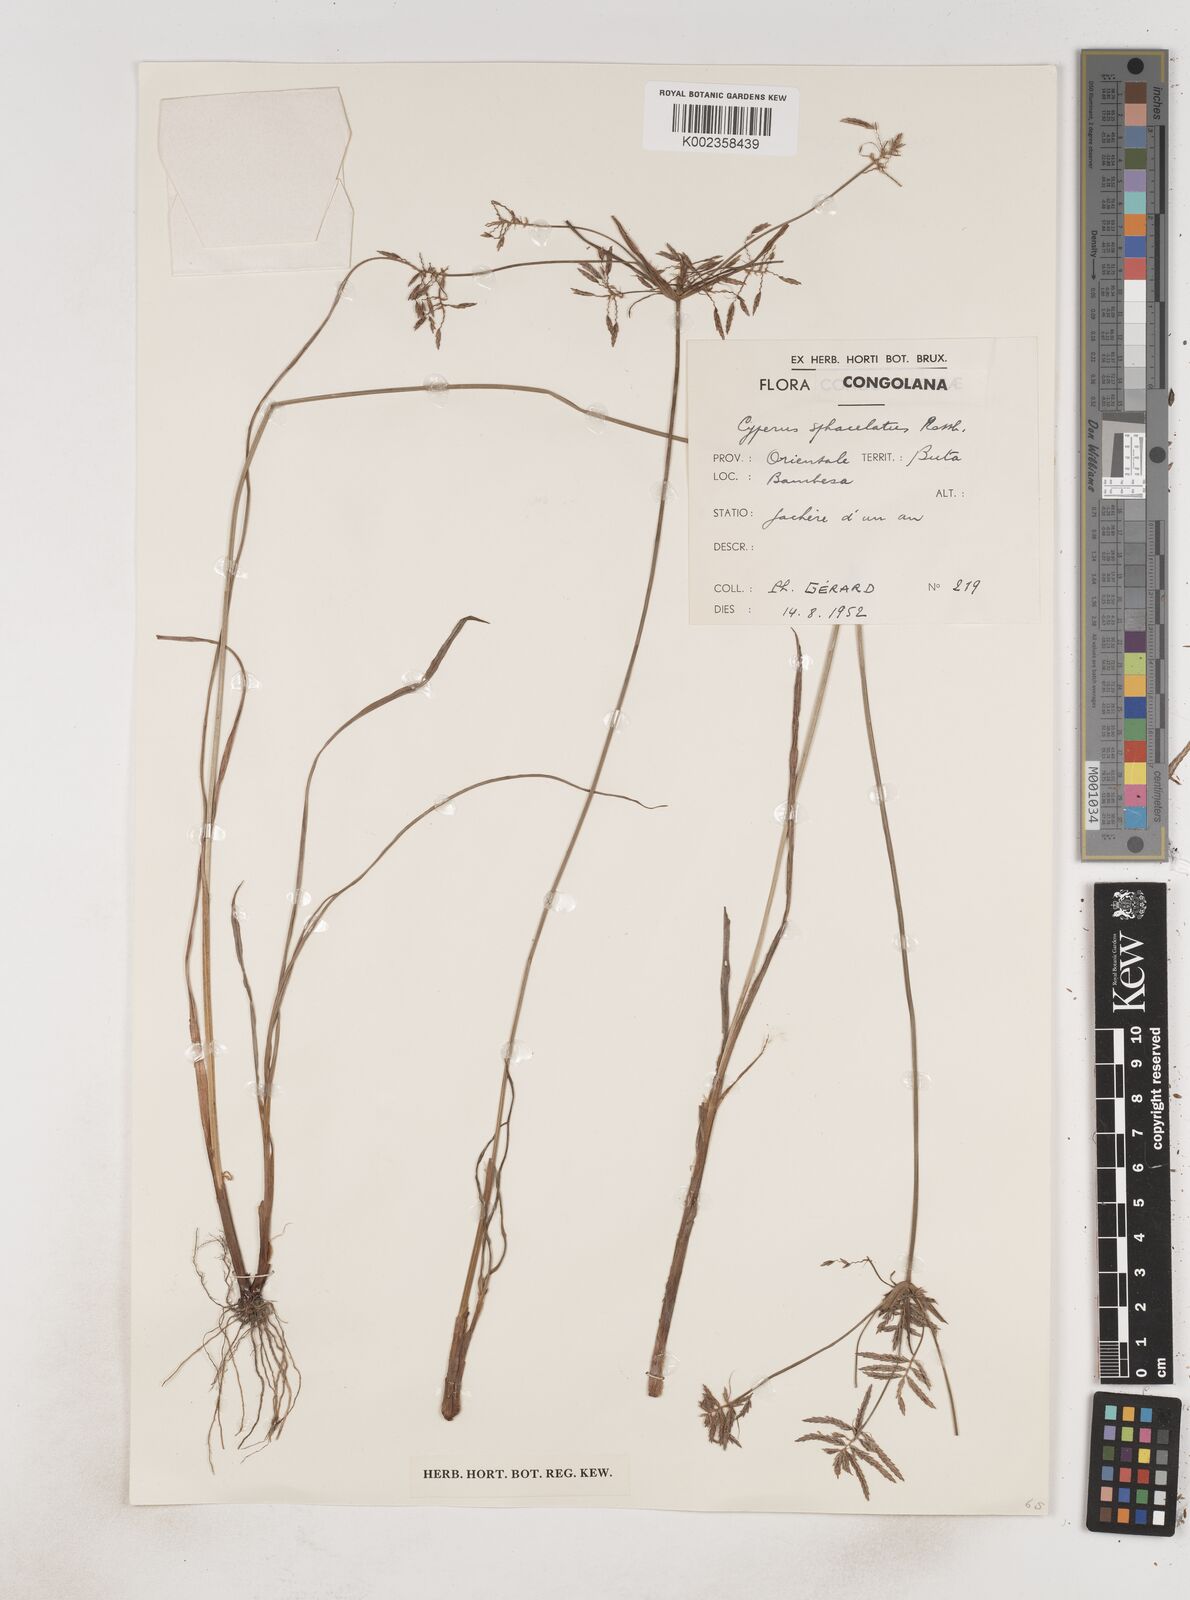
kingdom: Plantae
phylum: Tracheophyta
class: Liliopsida
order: Poales
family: Cyperaceae
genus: Cyperus
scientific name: Cyperus sphacelatus
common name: Roadside flatsedge
